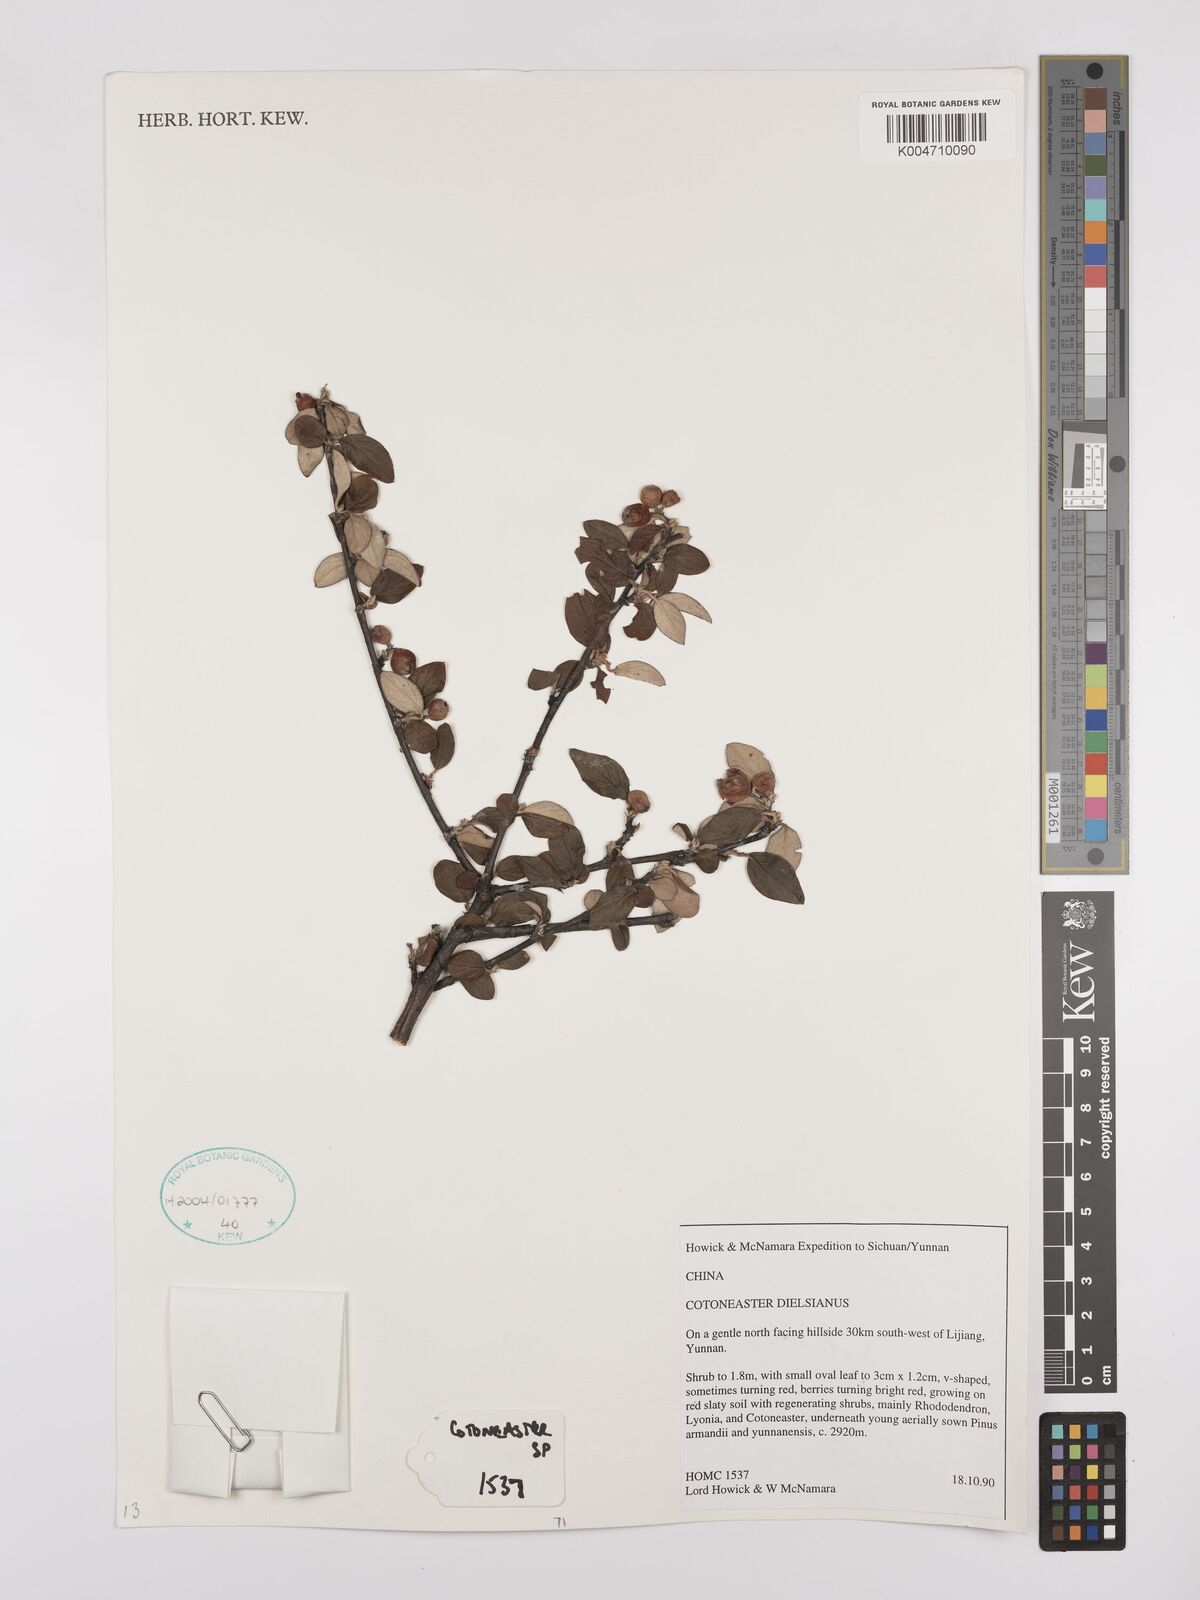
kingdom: Plantae
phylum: Tracheophyta
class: Magnoliopsida
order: Rosales
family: Rosaceae
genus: Cotoneaster
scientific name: Cotoneaster dielsianus
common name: Diels's cotoneaster
